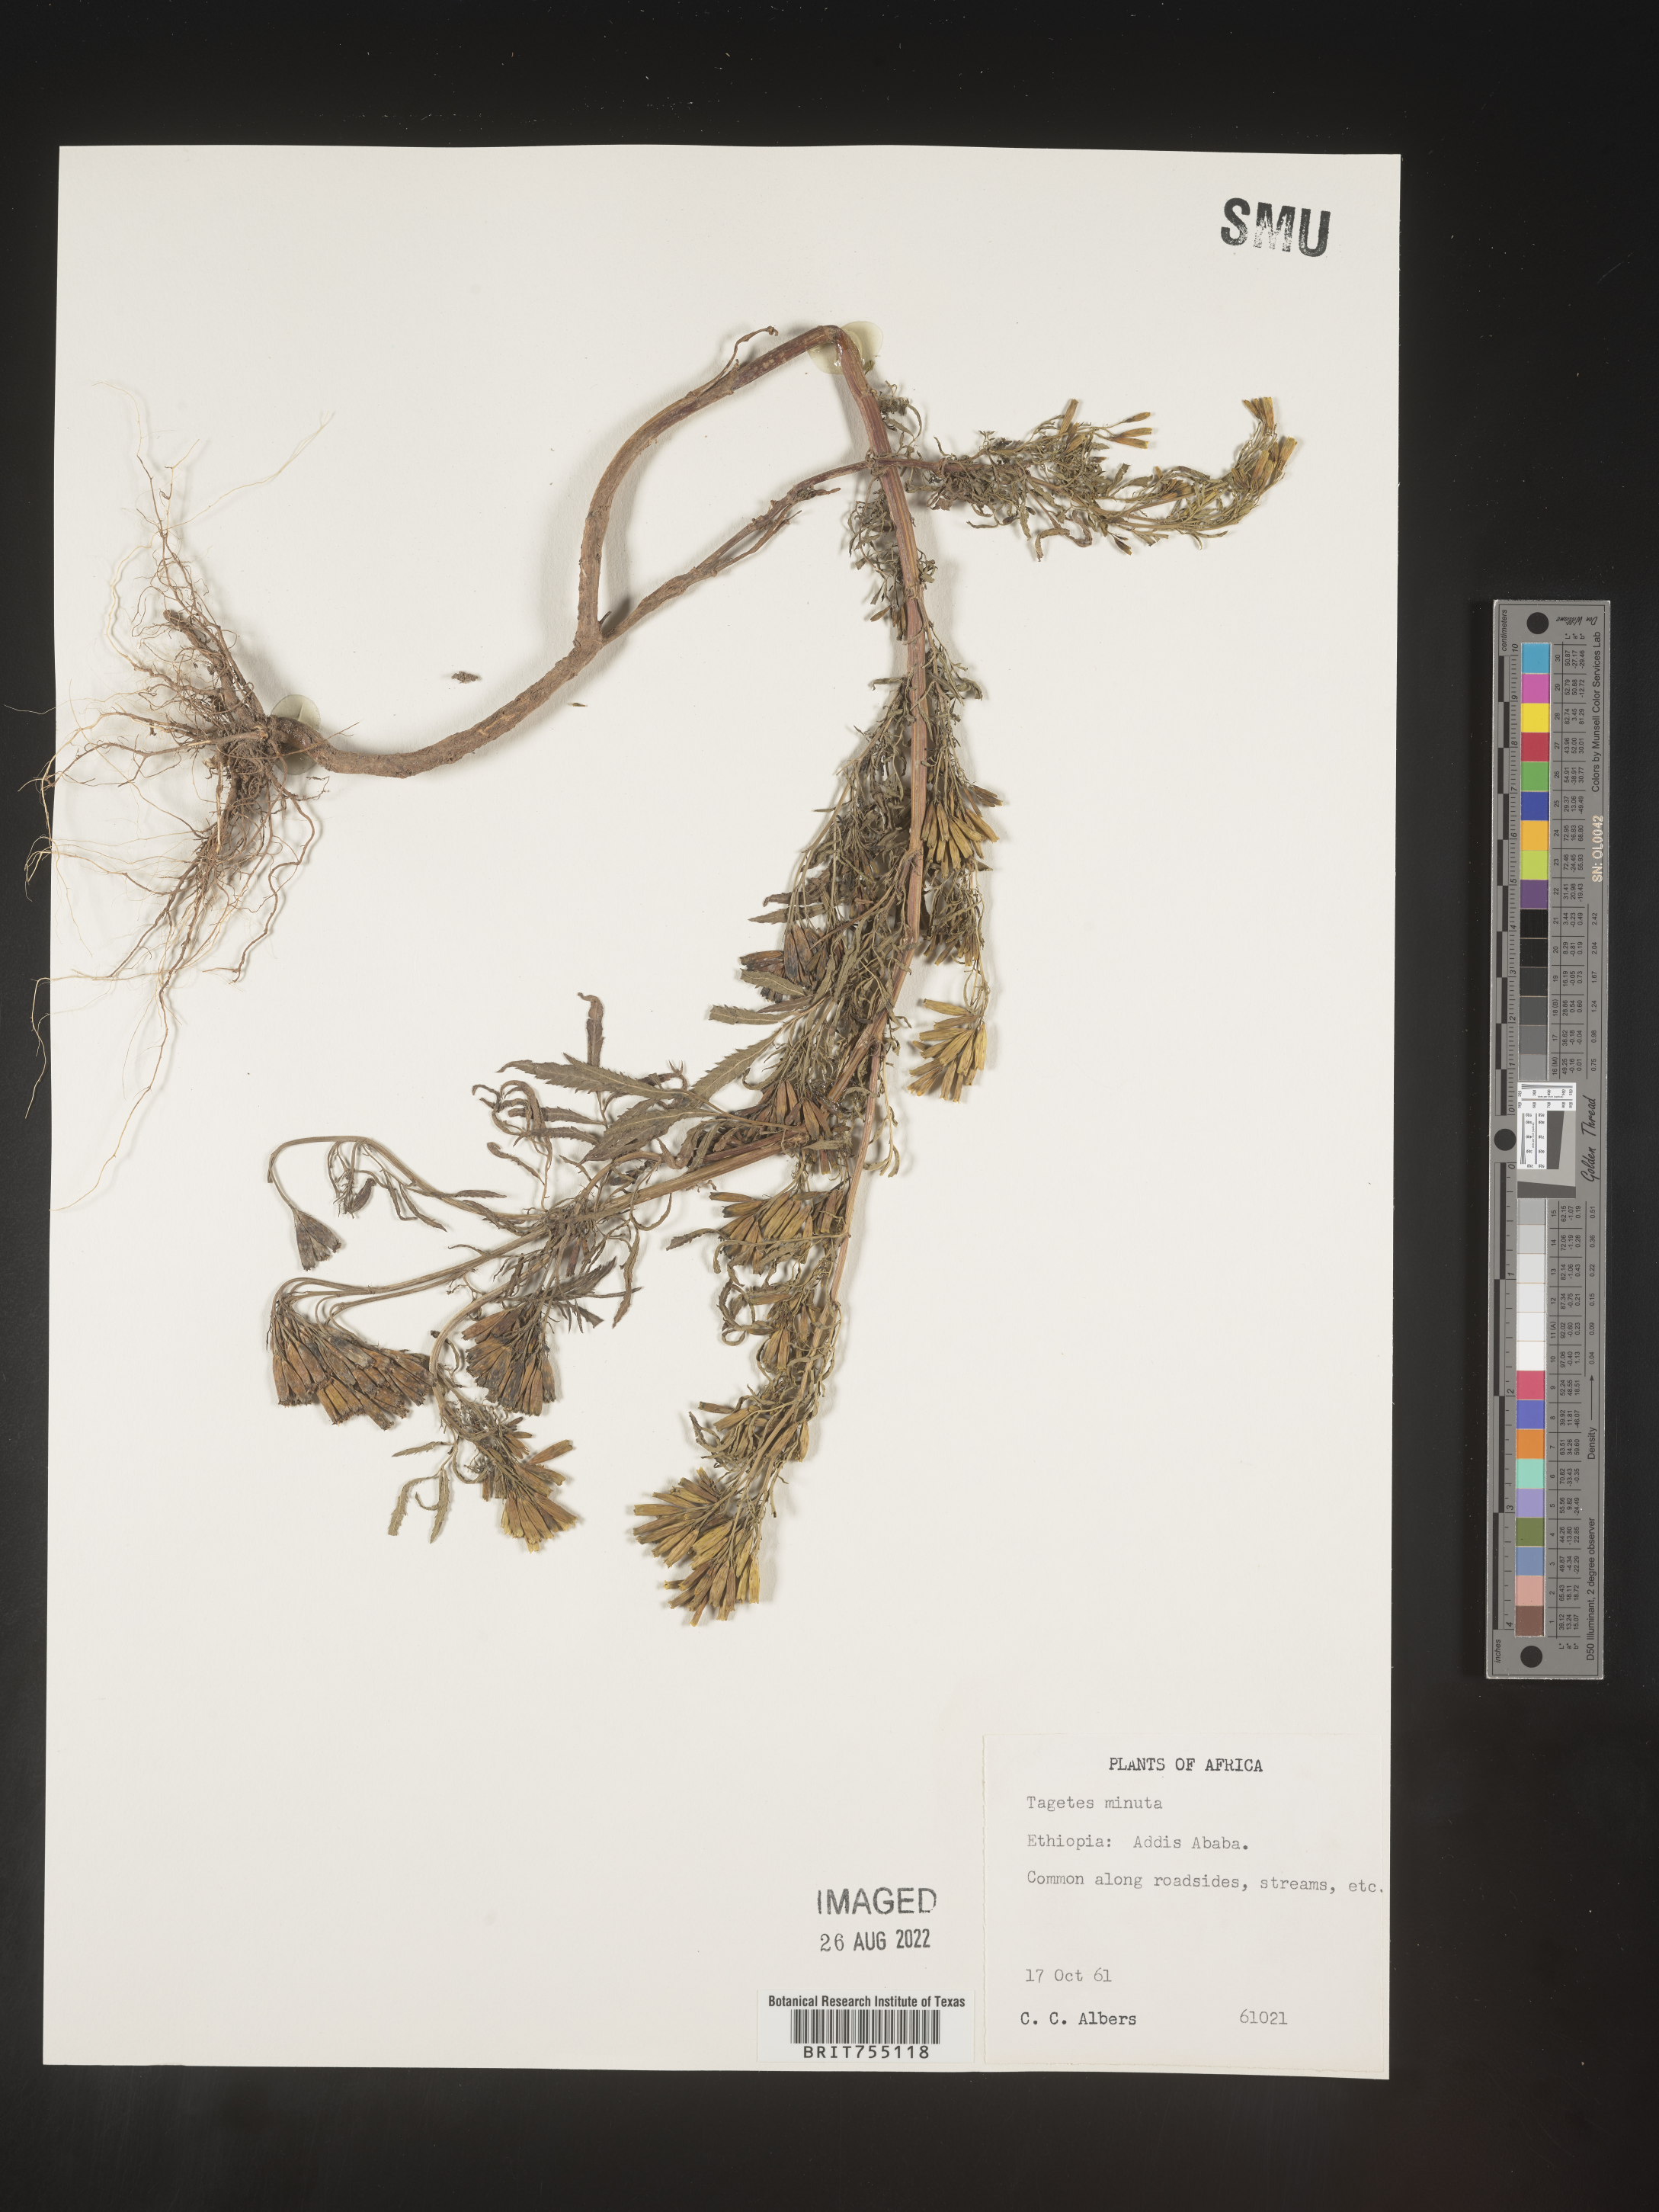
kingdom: Plantae
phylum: Tracheophyta
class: Magnoliopsida
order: Asterales
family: Asteraceae
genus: Tagetes
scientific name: Tagetes
